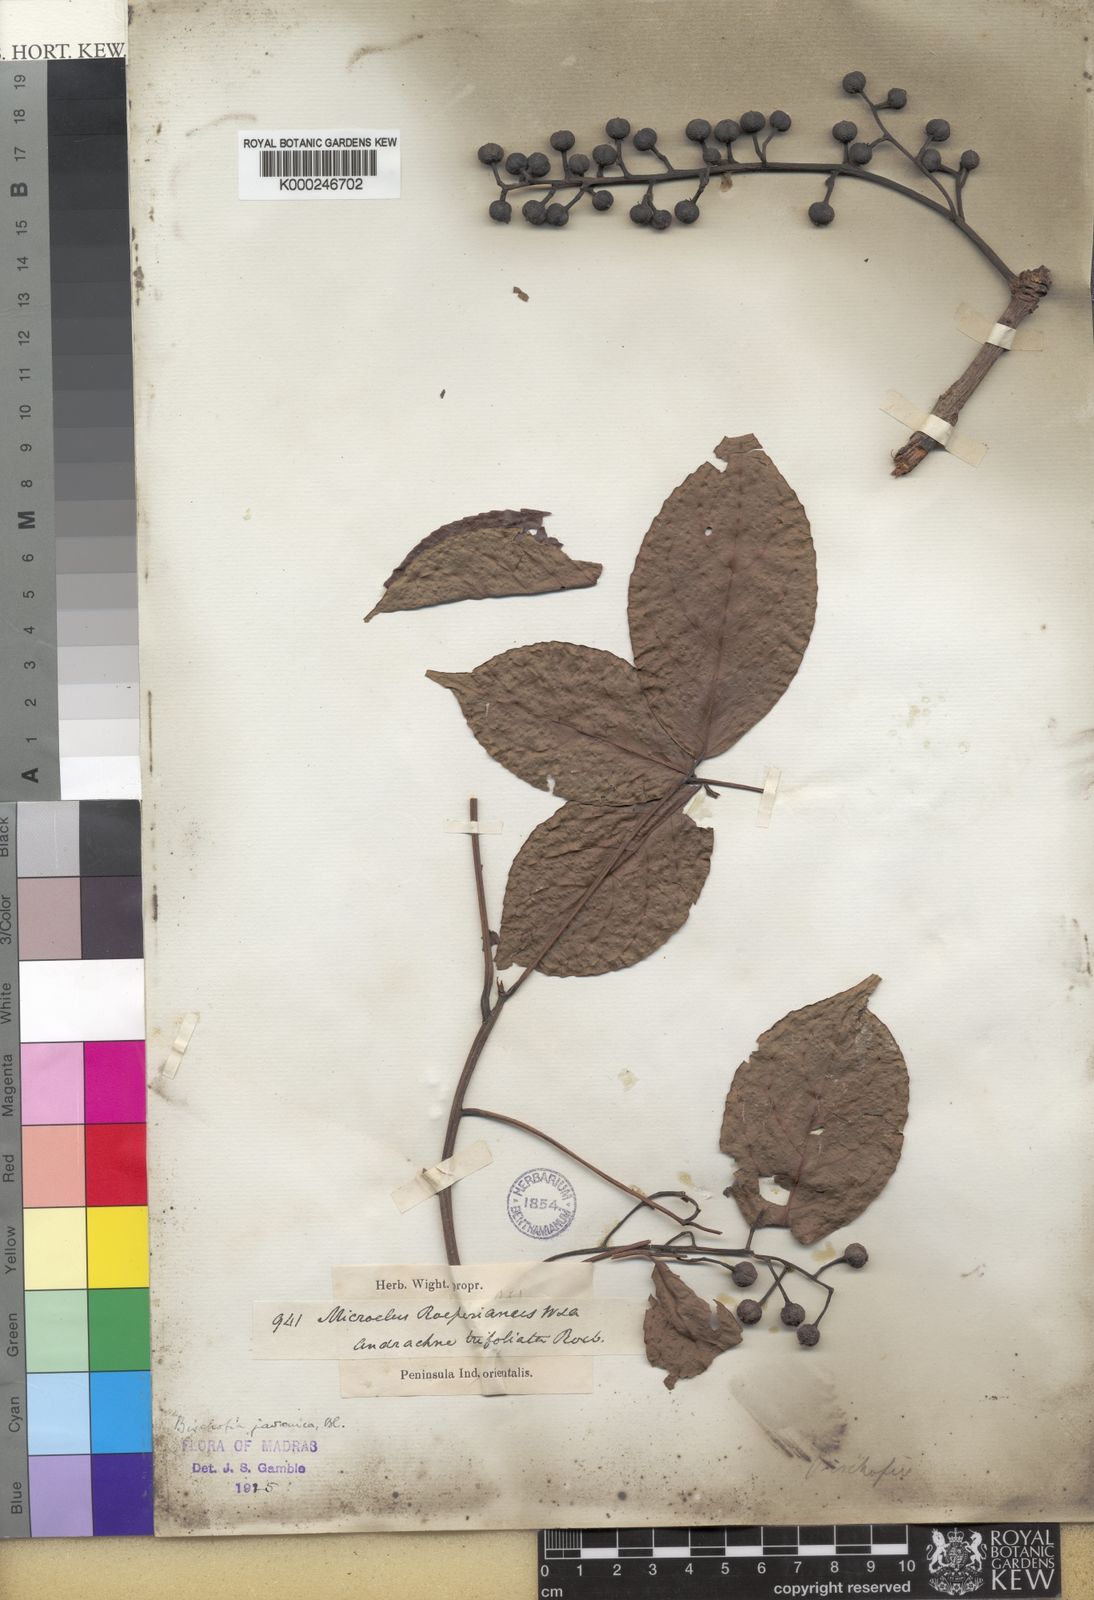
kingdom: Plantae
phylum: Tracheophyta
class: Magnoliopsida
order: Malpighiales
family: Phyllanthaceae
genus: Bischofia
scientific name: Bischofia javanica
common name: Javanese bishopwood
